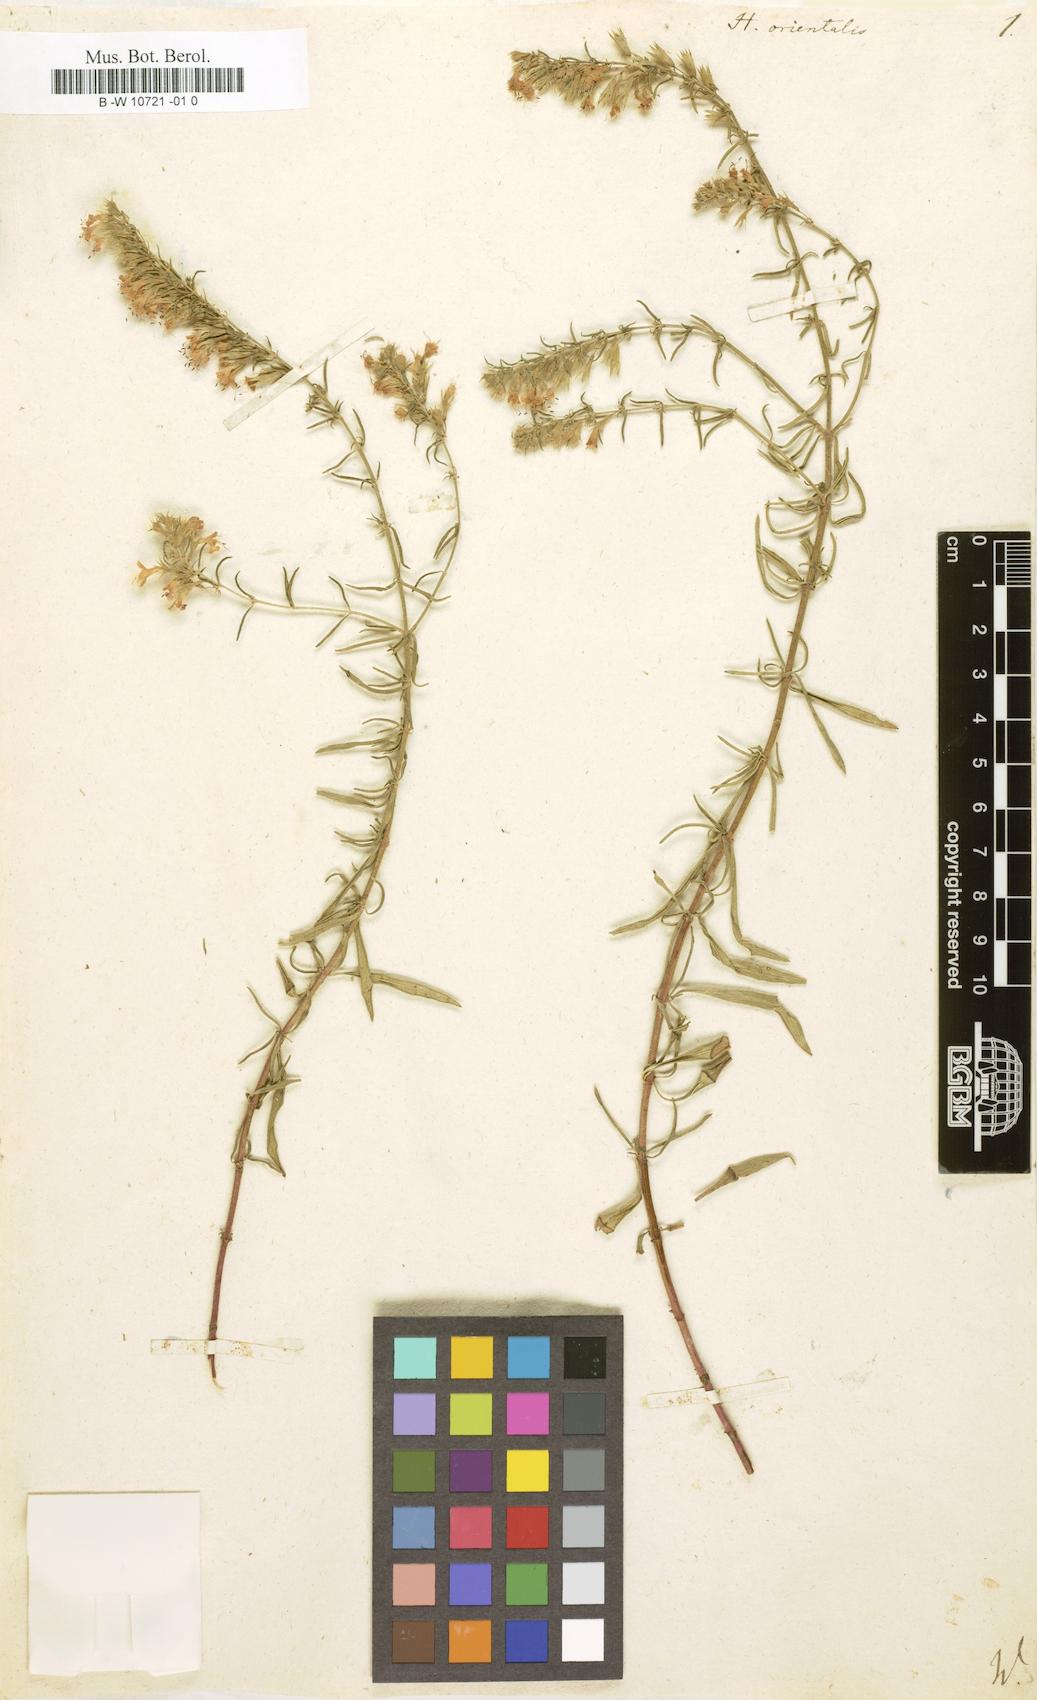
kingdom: Plantae
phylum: Tracheophyta
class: Magnoliopsida
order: Lamiales
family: Lamiaceae
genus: Hyssopus
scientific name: Hyssopus officinalis
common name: Hyssop
